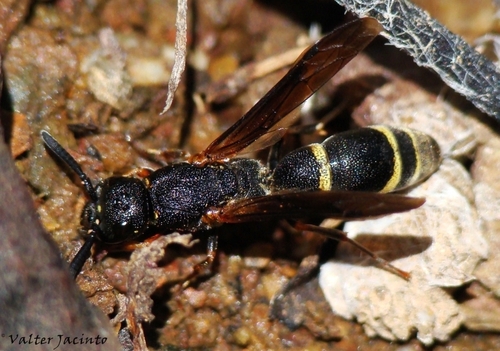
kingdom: Animalia
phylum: Arthropoda
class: Insecta
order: Hymenoptera
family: Eumenidae
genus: Eumicrodynerus
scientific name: Eumicrodynerus longicorpus
